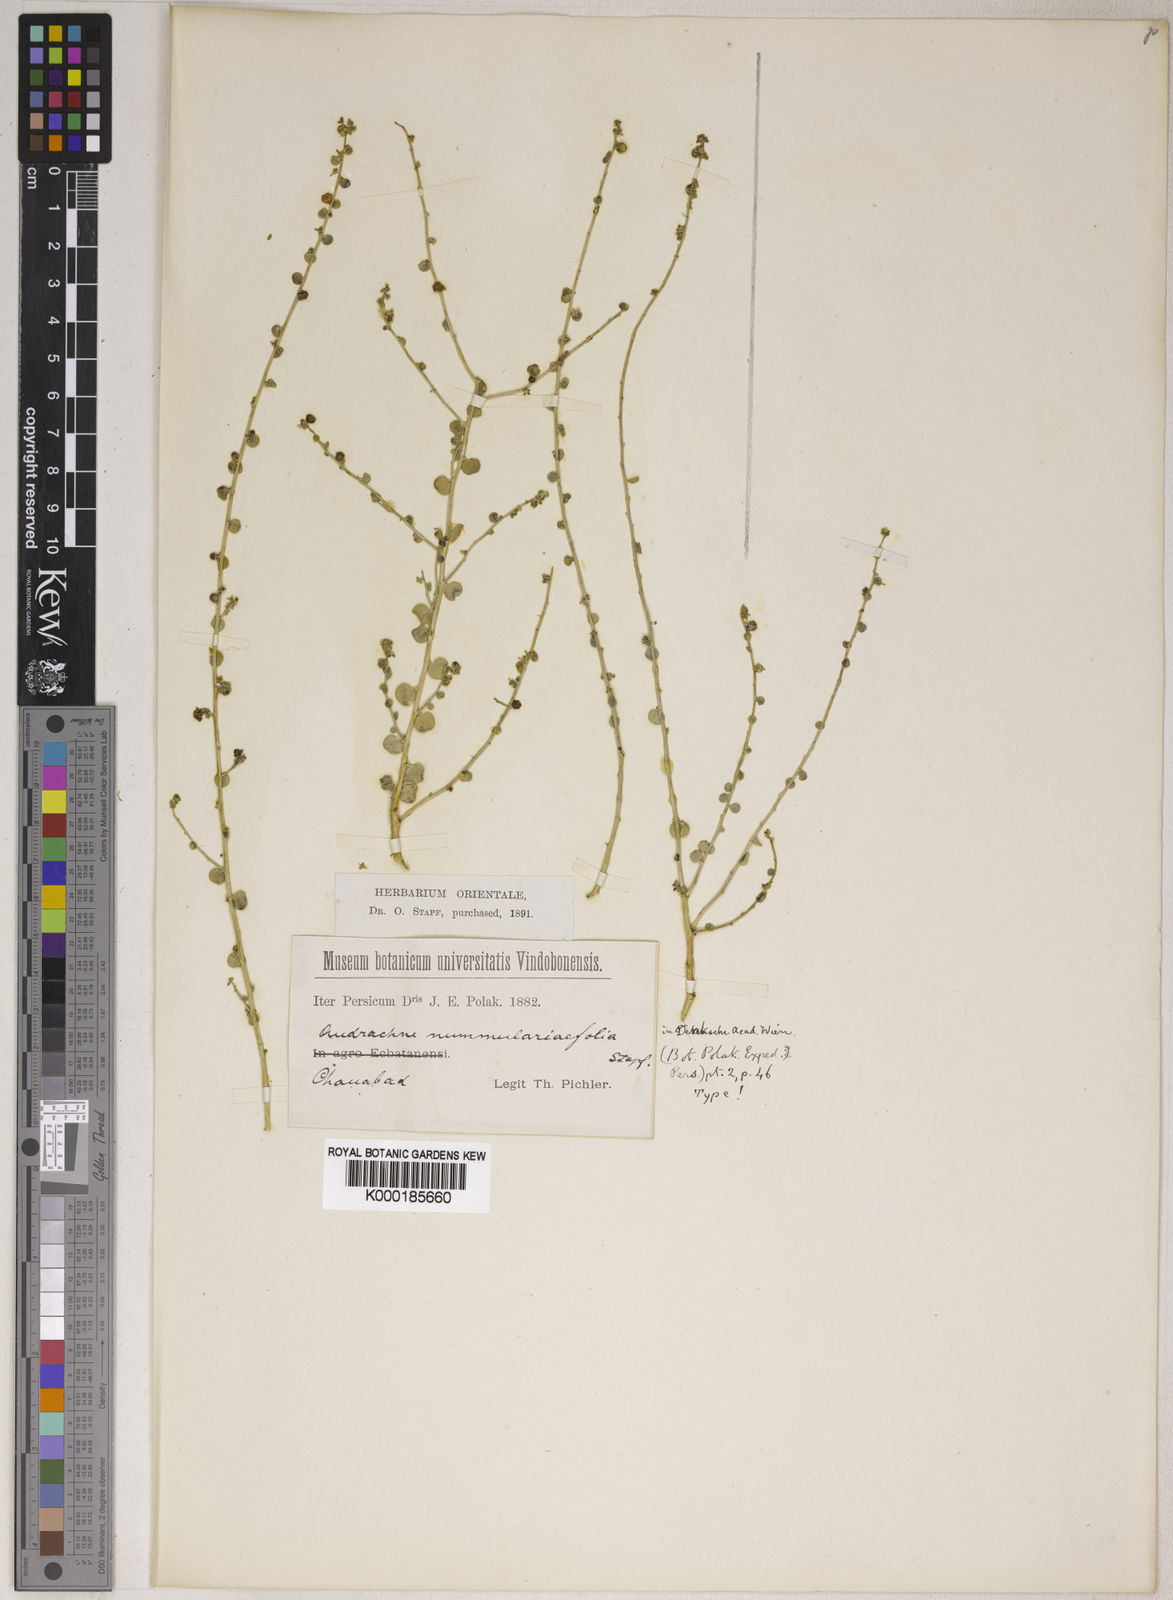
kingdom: Plantae
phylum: Tracheophyta
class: Magnoliopsida
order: Malpighiales
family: Phyllanthaceae
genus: Andrachne
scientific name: Andrachne telephioides
